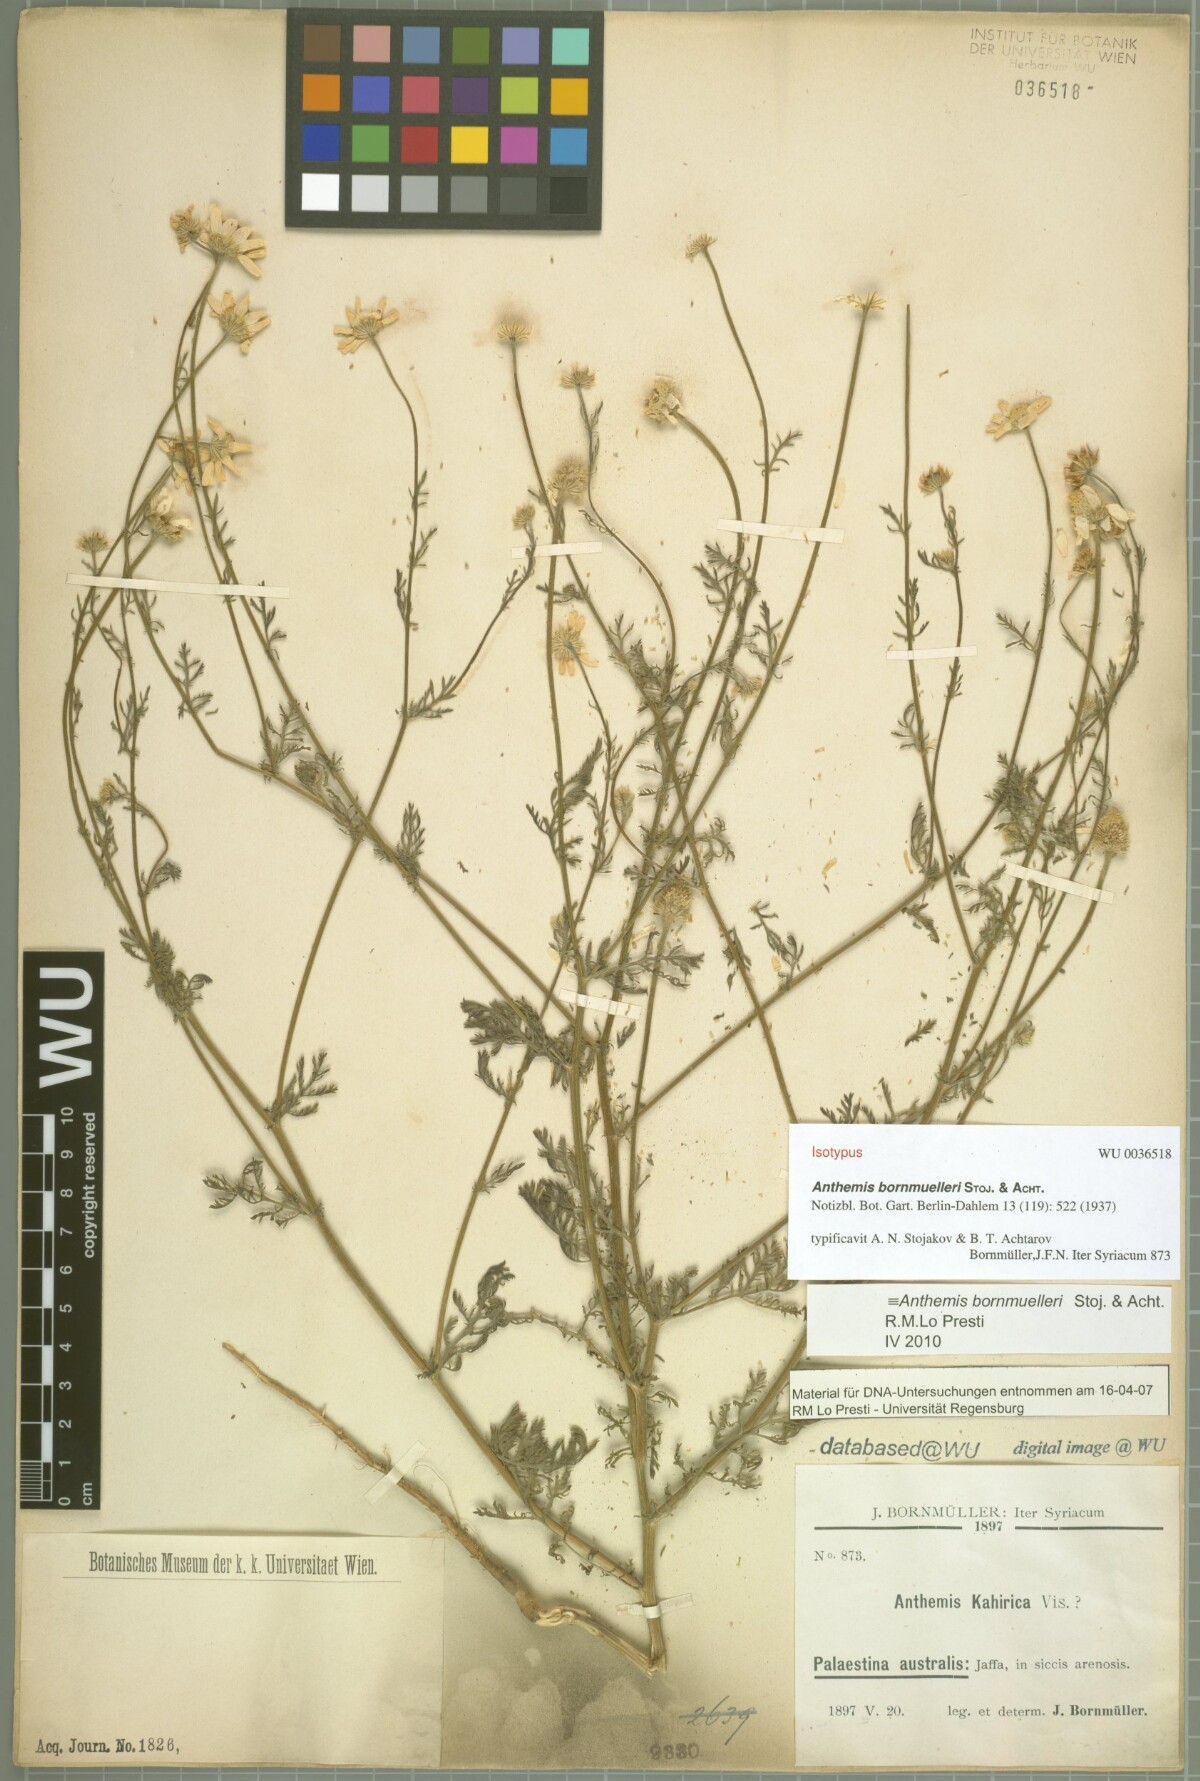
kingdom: Plantae
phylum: Tracheophyta
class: Magnoliopsida
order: Asterales
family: Asteraceae
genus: Anthemis
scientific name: Anthemis bornmuelleri
